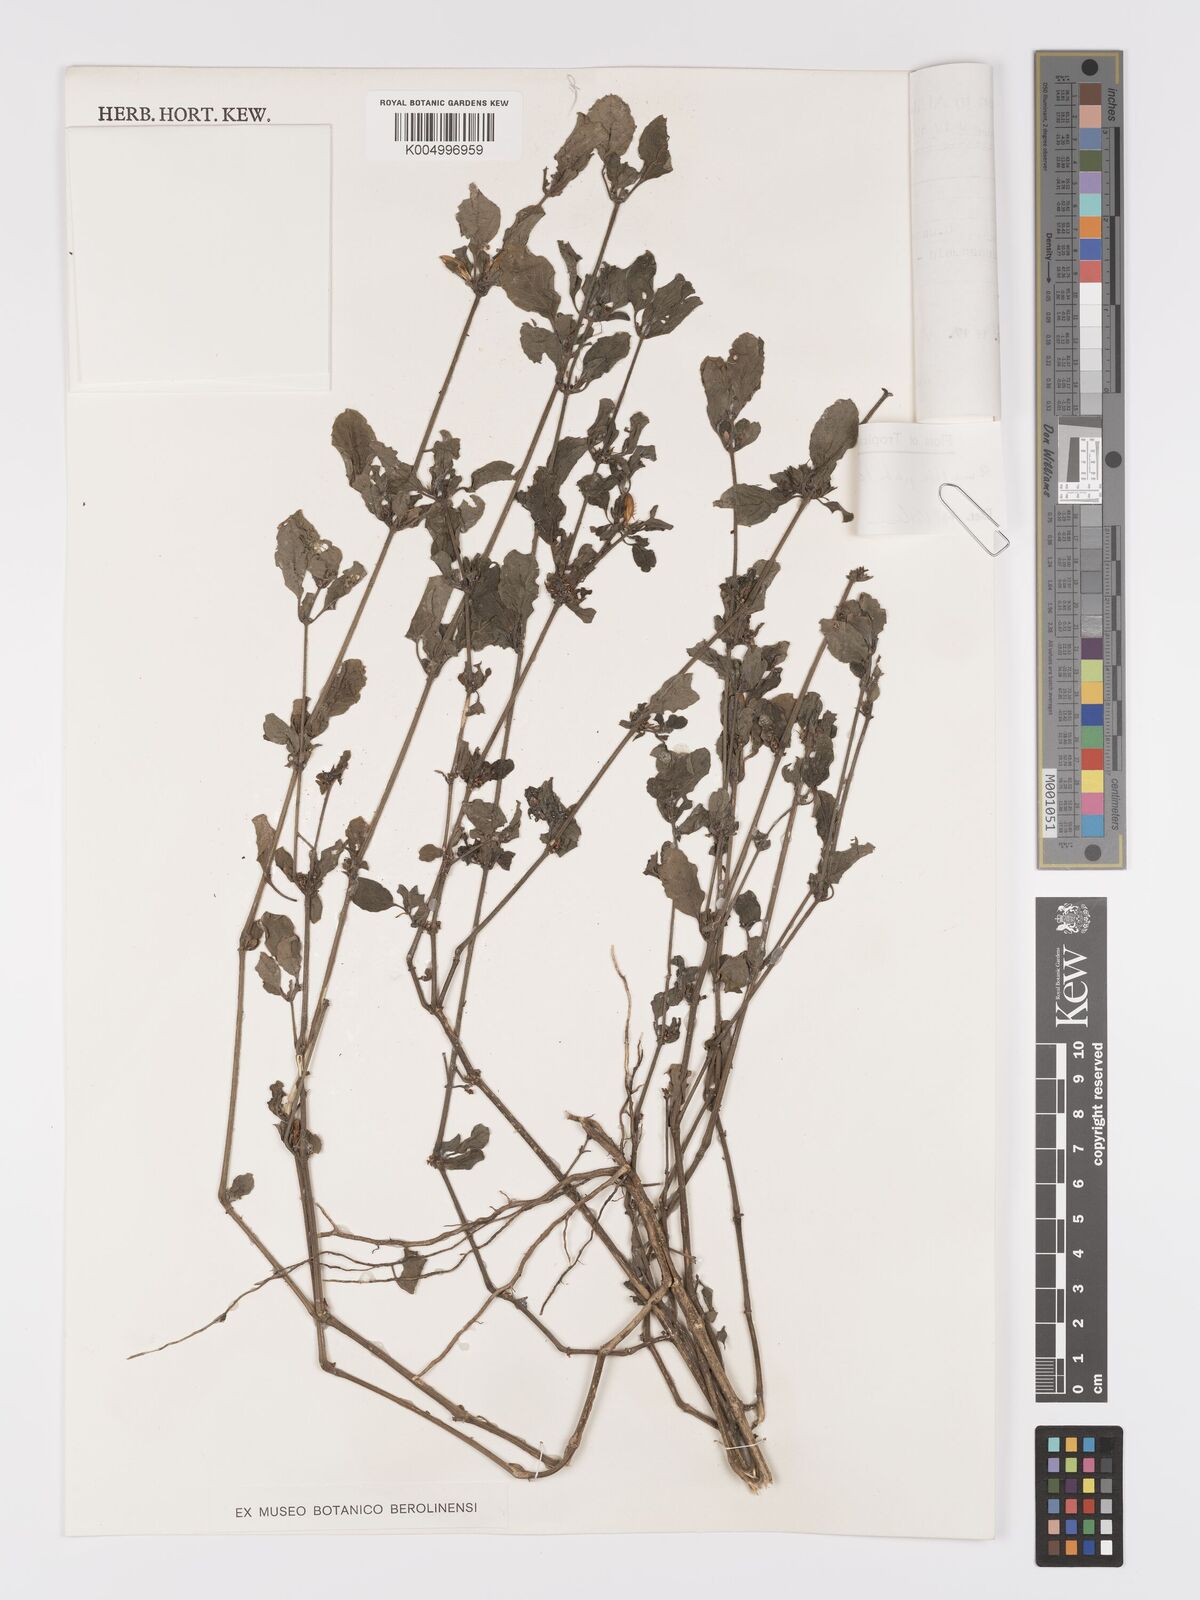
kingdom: Plantae
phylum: Tracheophyta
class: Magnoliopsida
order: Lamiales
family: Acanthaceae
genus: Ruellia
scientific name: Ruellia patula
